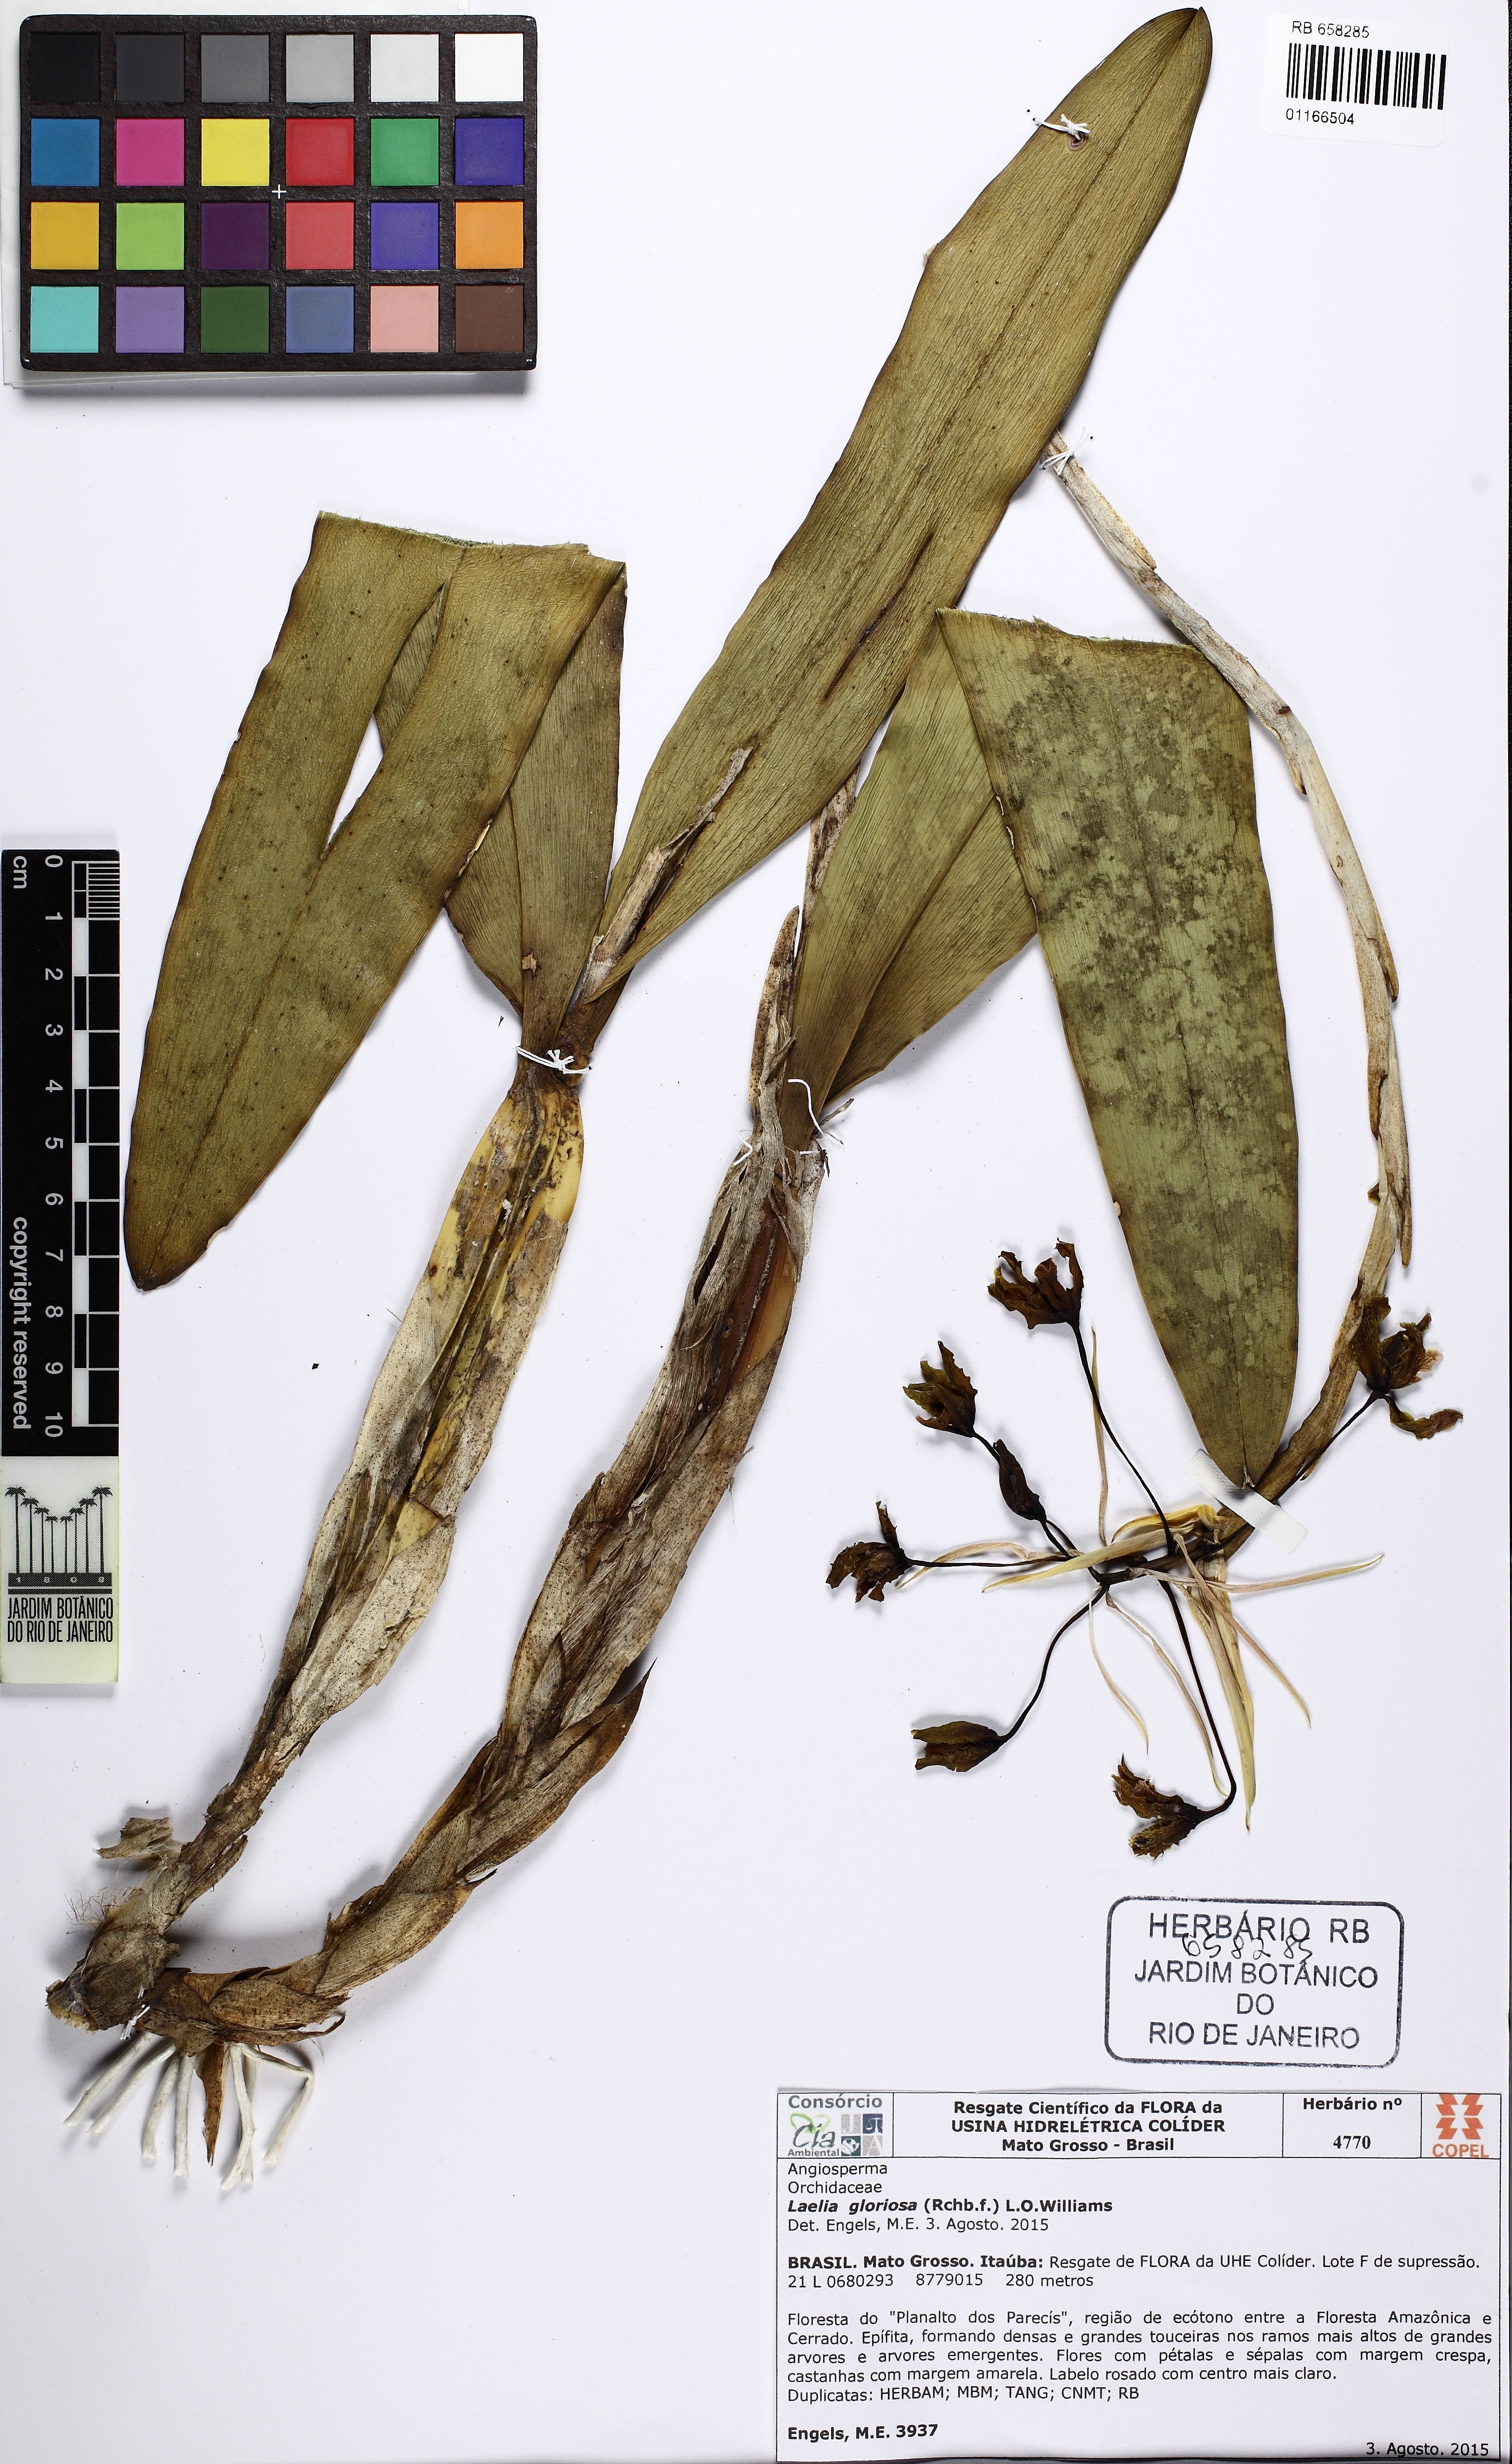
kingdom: Plantae
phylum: Tracheophyta
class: Liliopsida
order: Asparagales
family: Orchidaceae
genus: Laelia
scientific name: Laelia gloriosa
